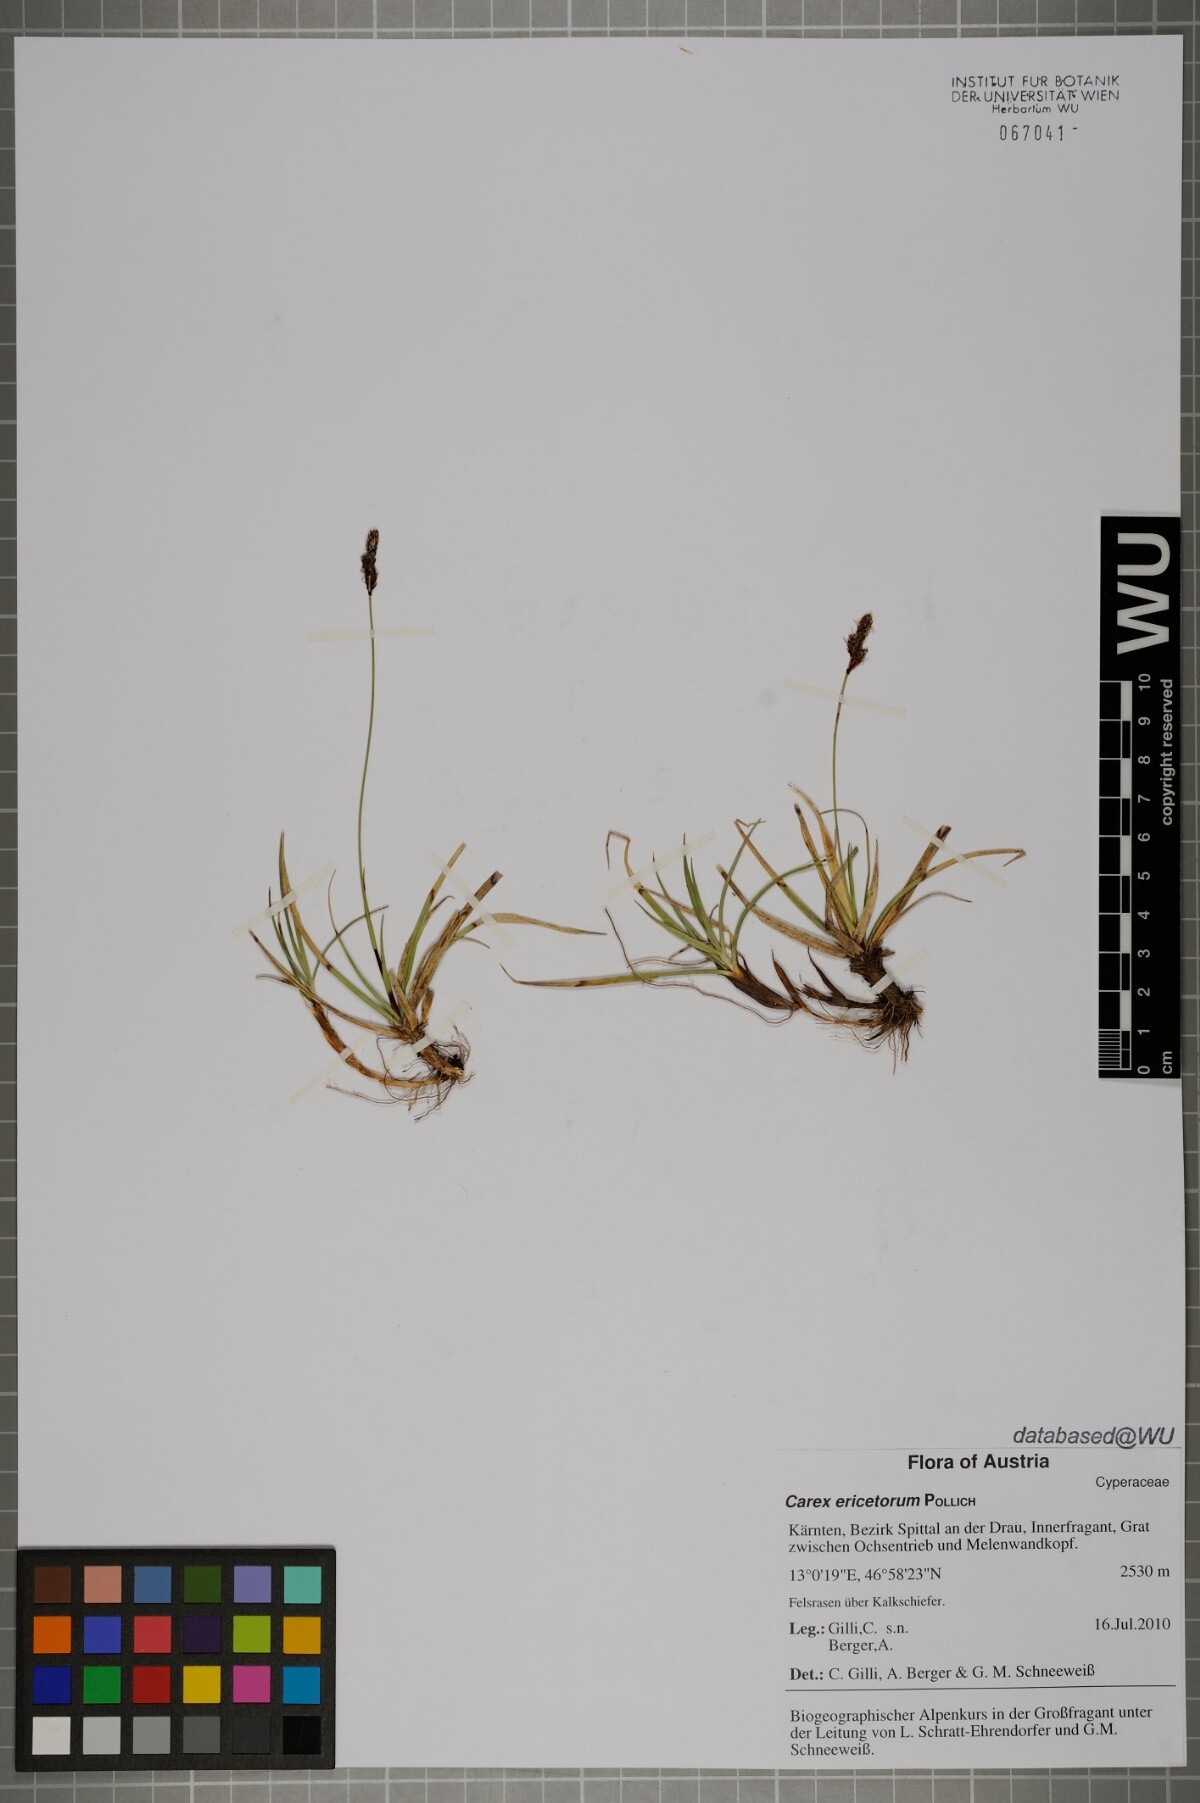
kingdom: Plantae
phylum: Tracheophyta
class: Liliopsida
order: Poales
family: Cyperaceae
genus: Carex
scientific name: Carex ericetorum
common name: Rare spring-sedge
